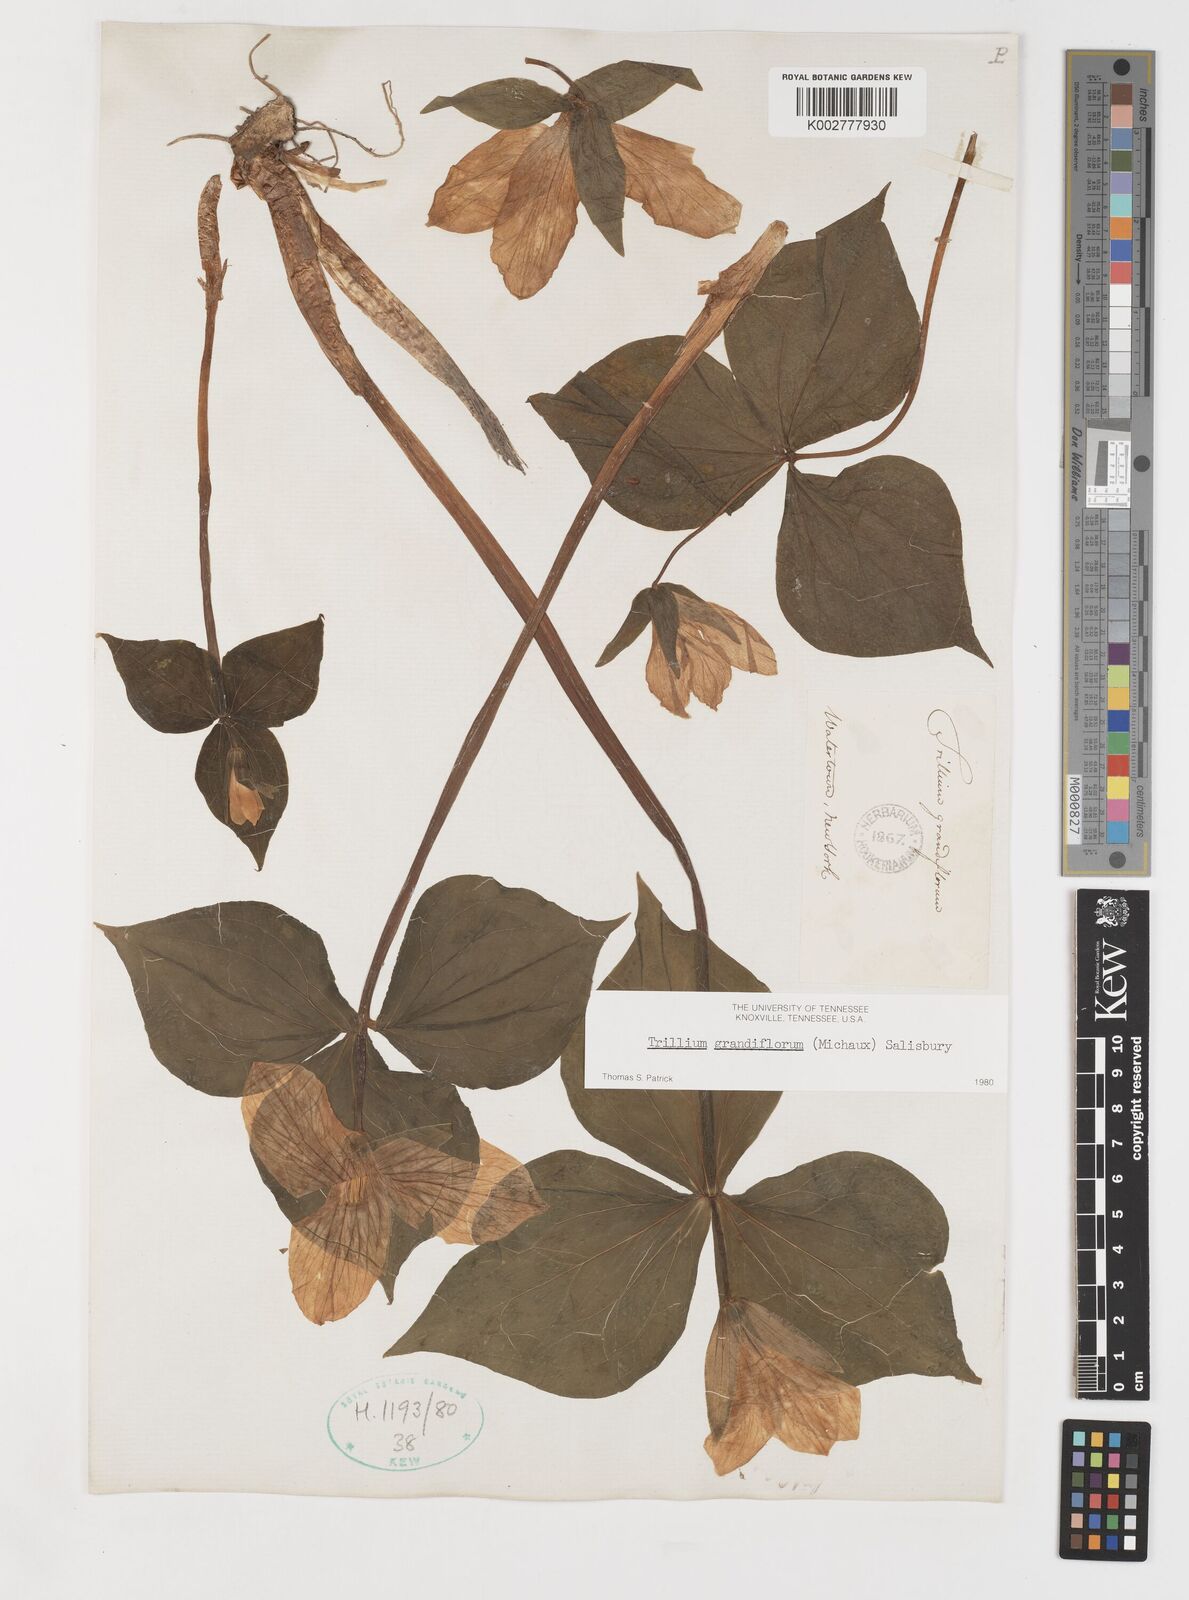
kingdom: Plantae
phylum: Tracheophyta
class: Liliopsida
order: Liliales
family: Melanthiaceae
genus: Trillium
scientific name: Trillium grandiflorum
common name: Great white trillium
